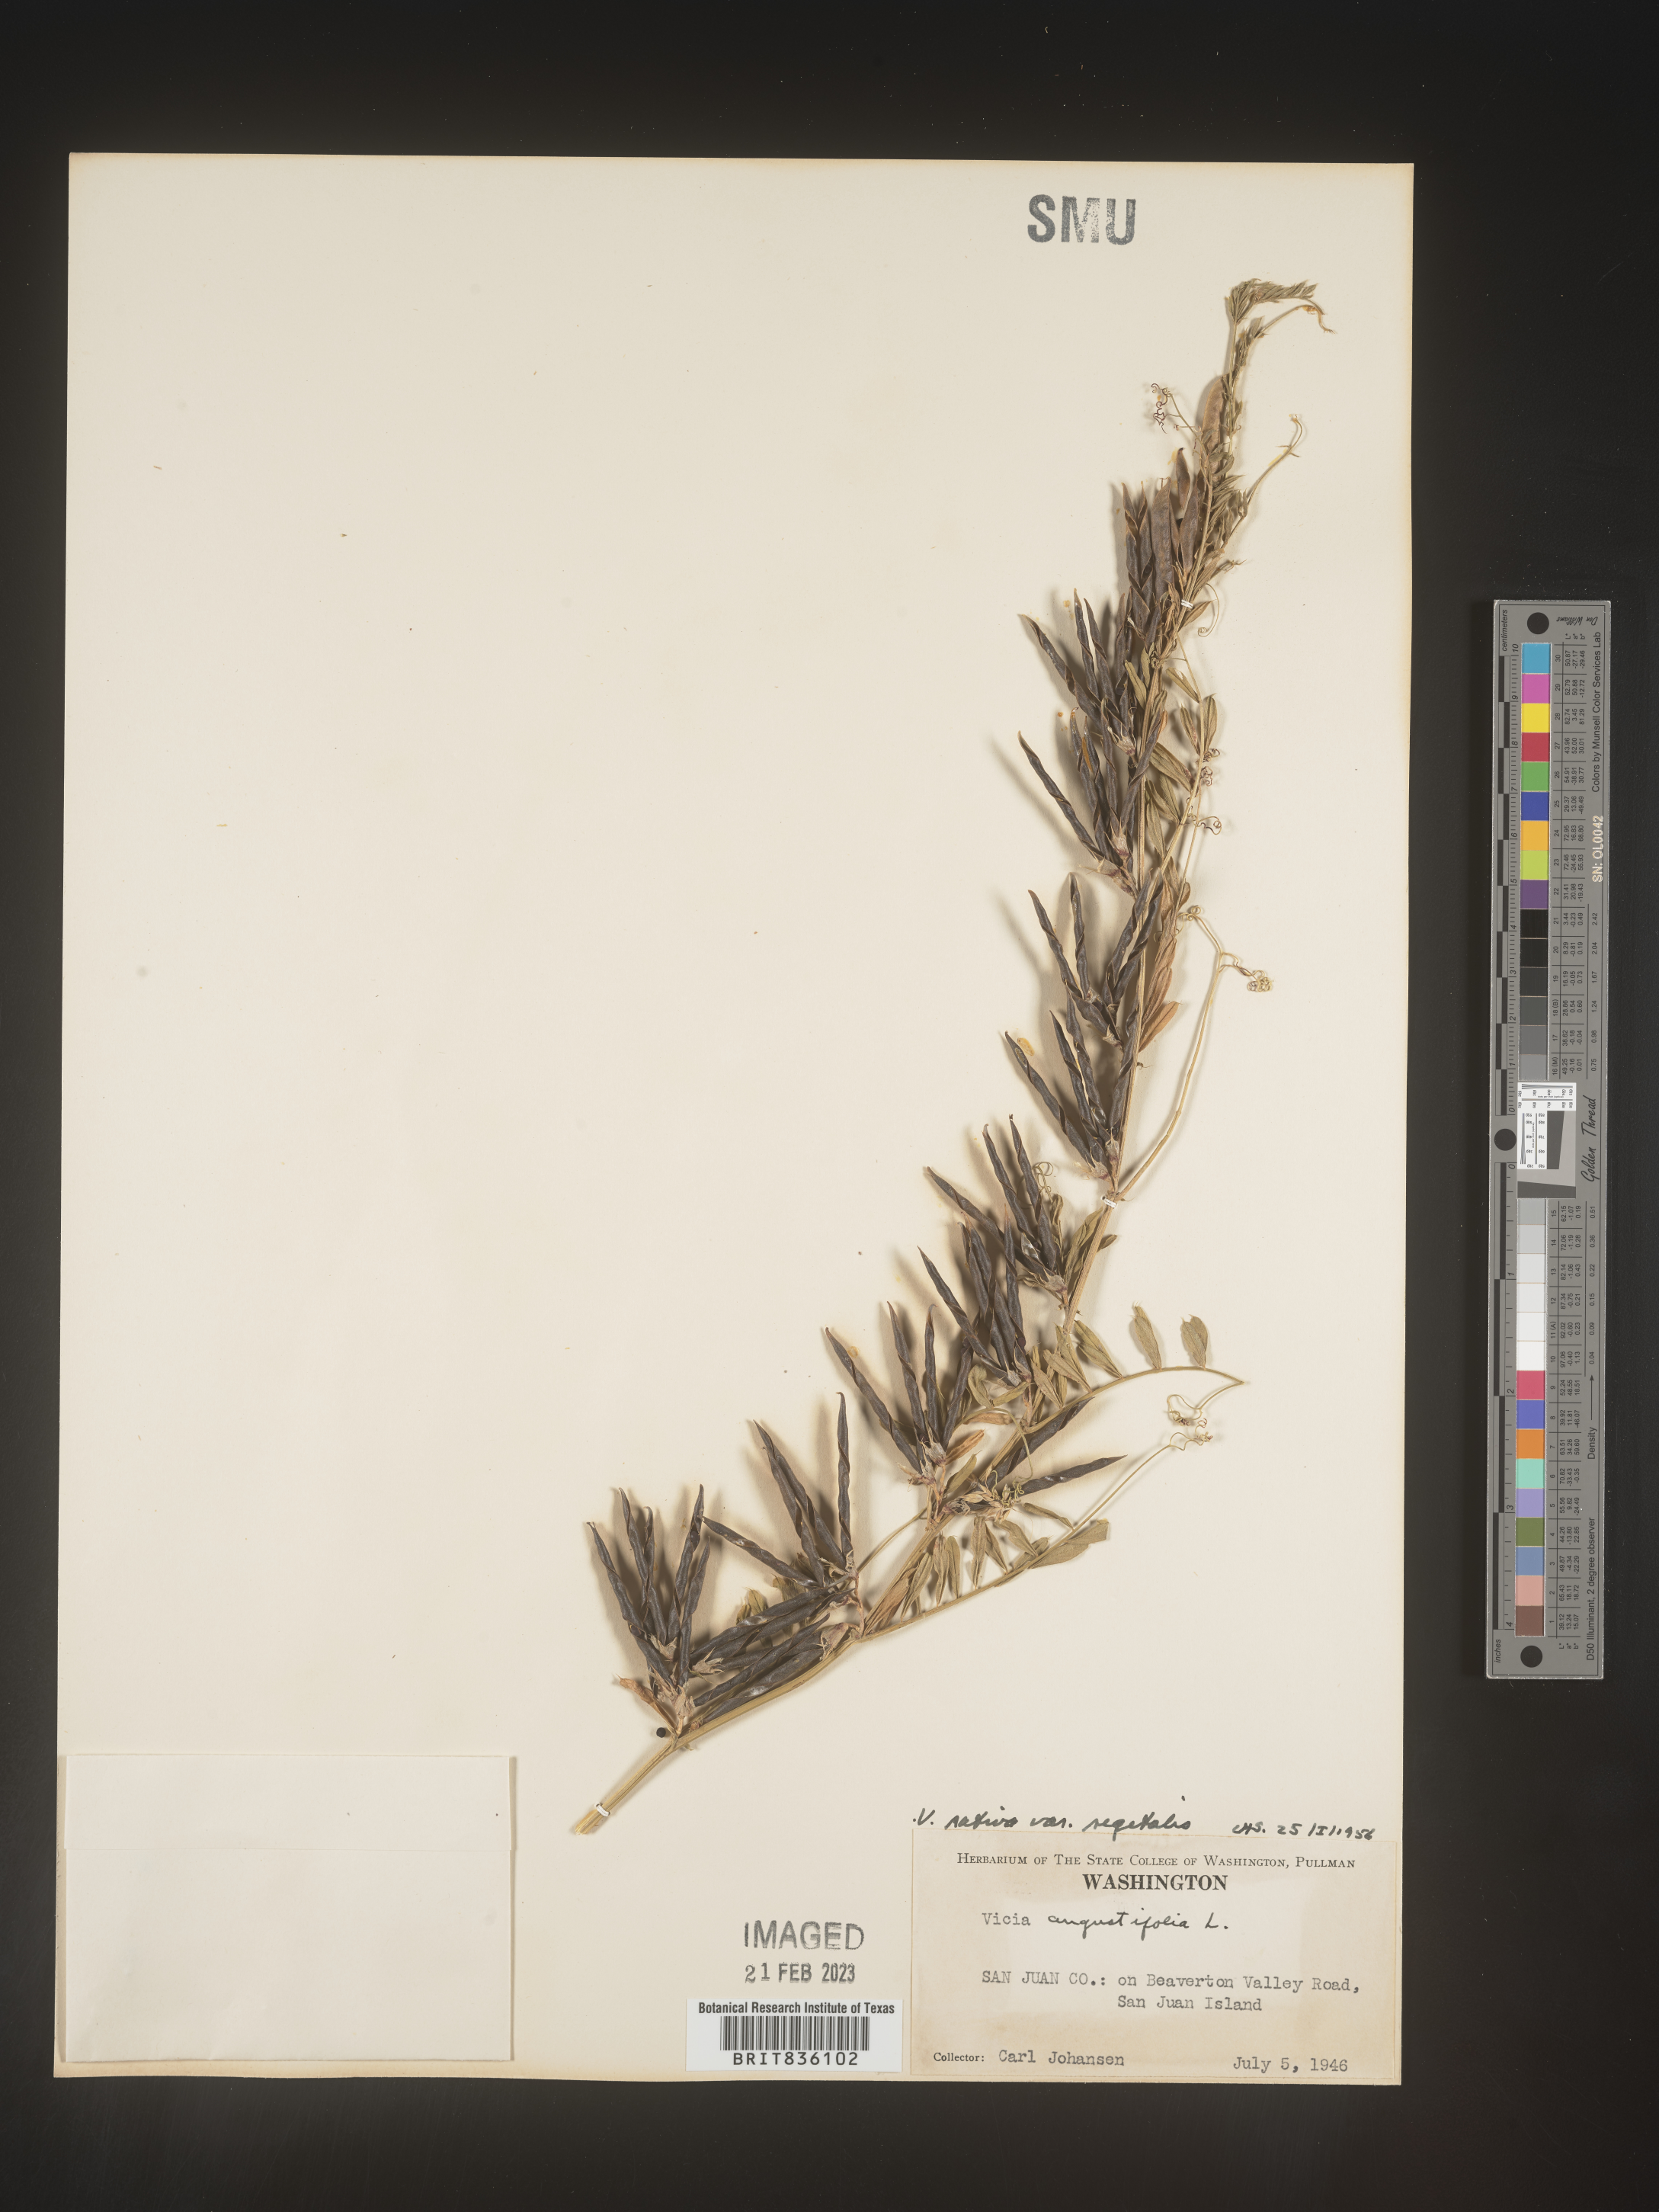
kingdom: Plantae
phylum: Tracheophyta
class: Magnoliopsida
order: Fabales
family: Fabaceae
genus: Vicia
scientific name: Vicia sativa
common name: Garden vetch
